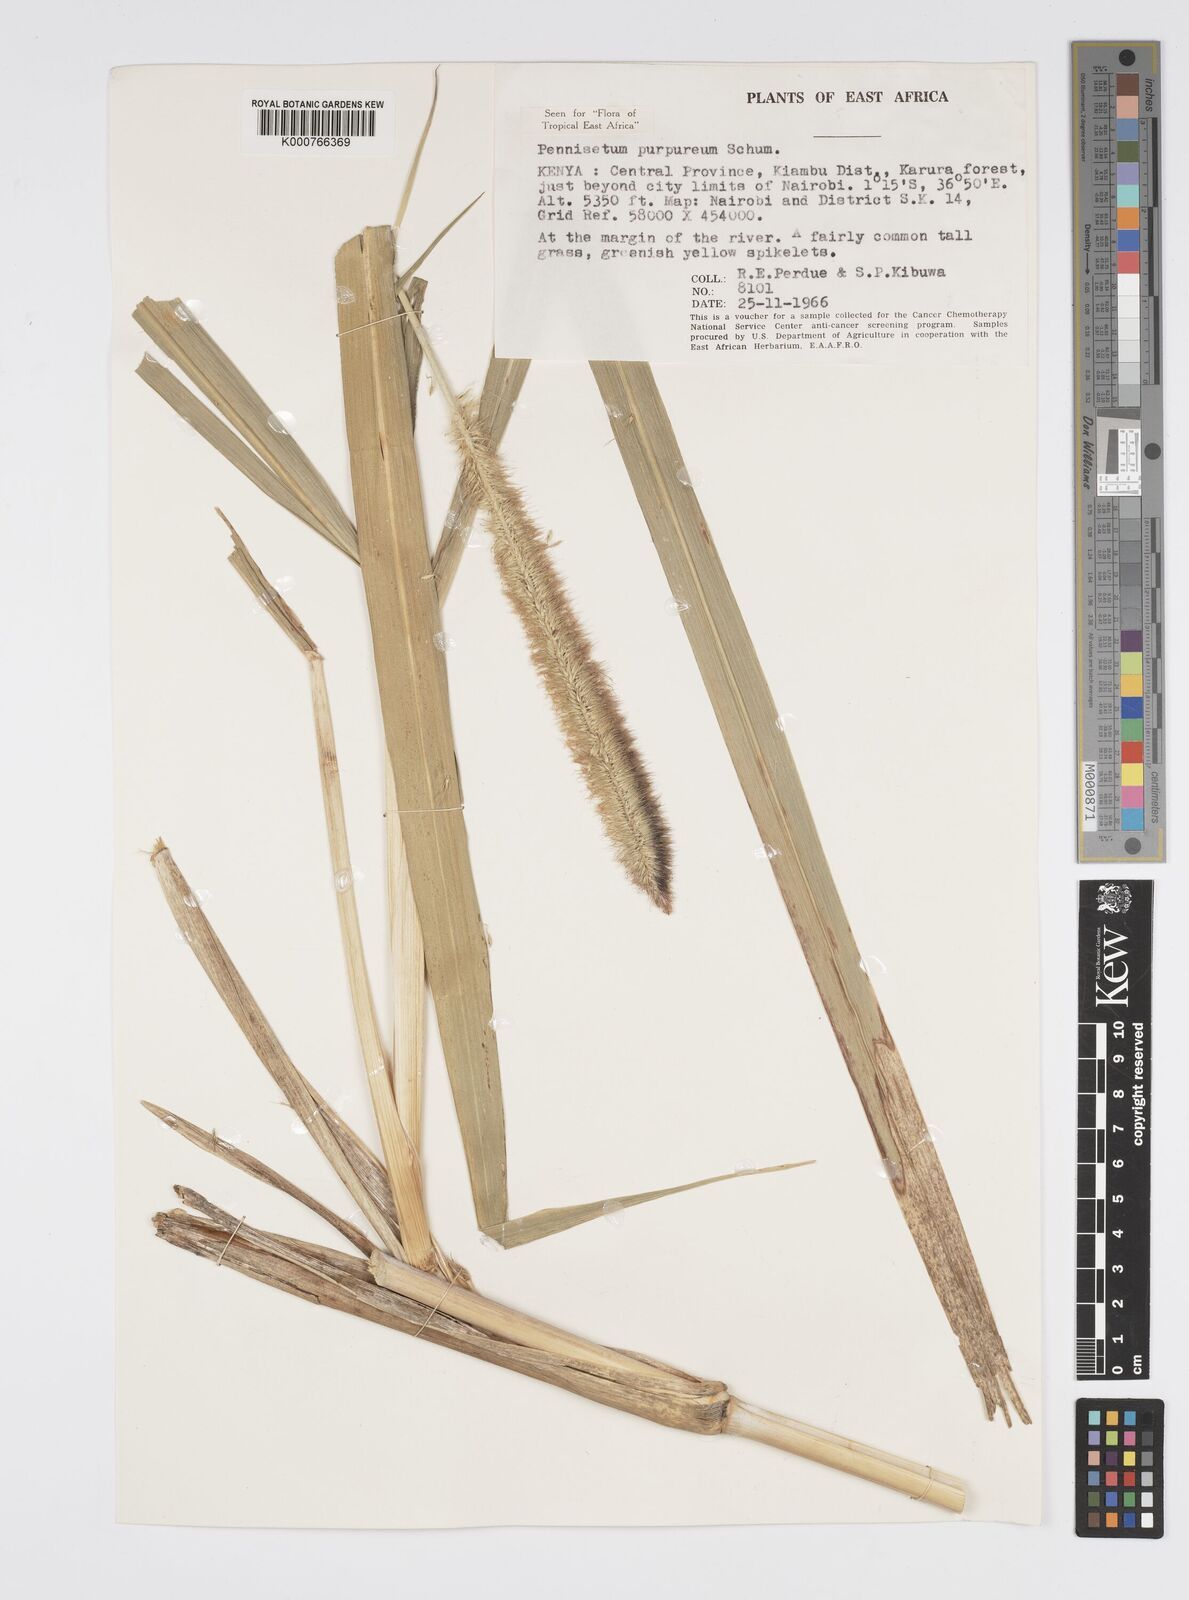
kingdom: Plantae
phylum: Tracheophyta
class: Liliopsida
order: Poales
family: Poaceae
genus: Cenchrus
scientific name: Cenchrus purpureus
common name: Elephant grass
